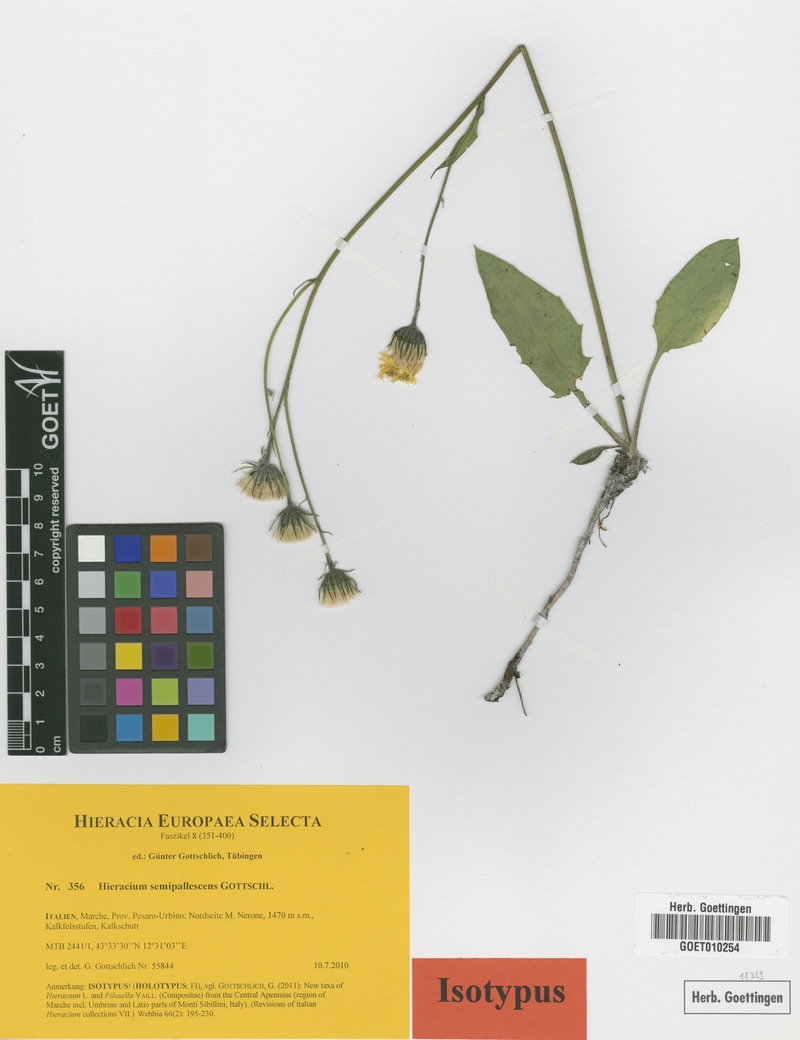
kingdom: Plantae
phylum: Tracheophyta
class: Magnoliopsida
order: Asterales
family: Asteraceae
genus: Hieracium
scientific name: Hieracium semipallescens
